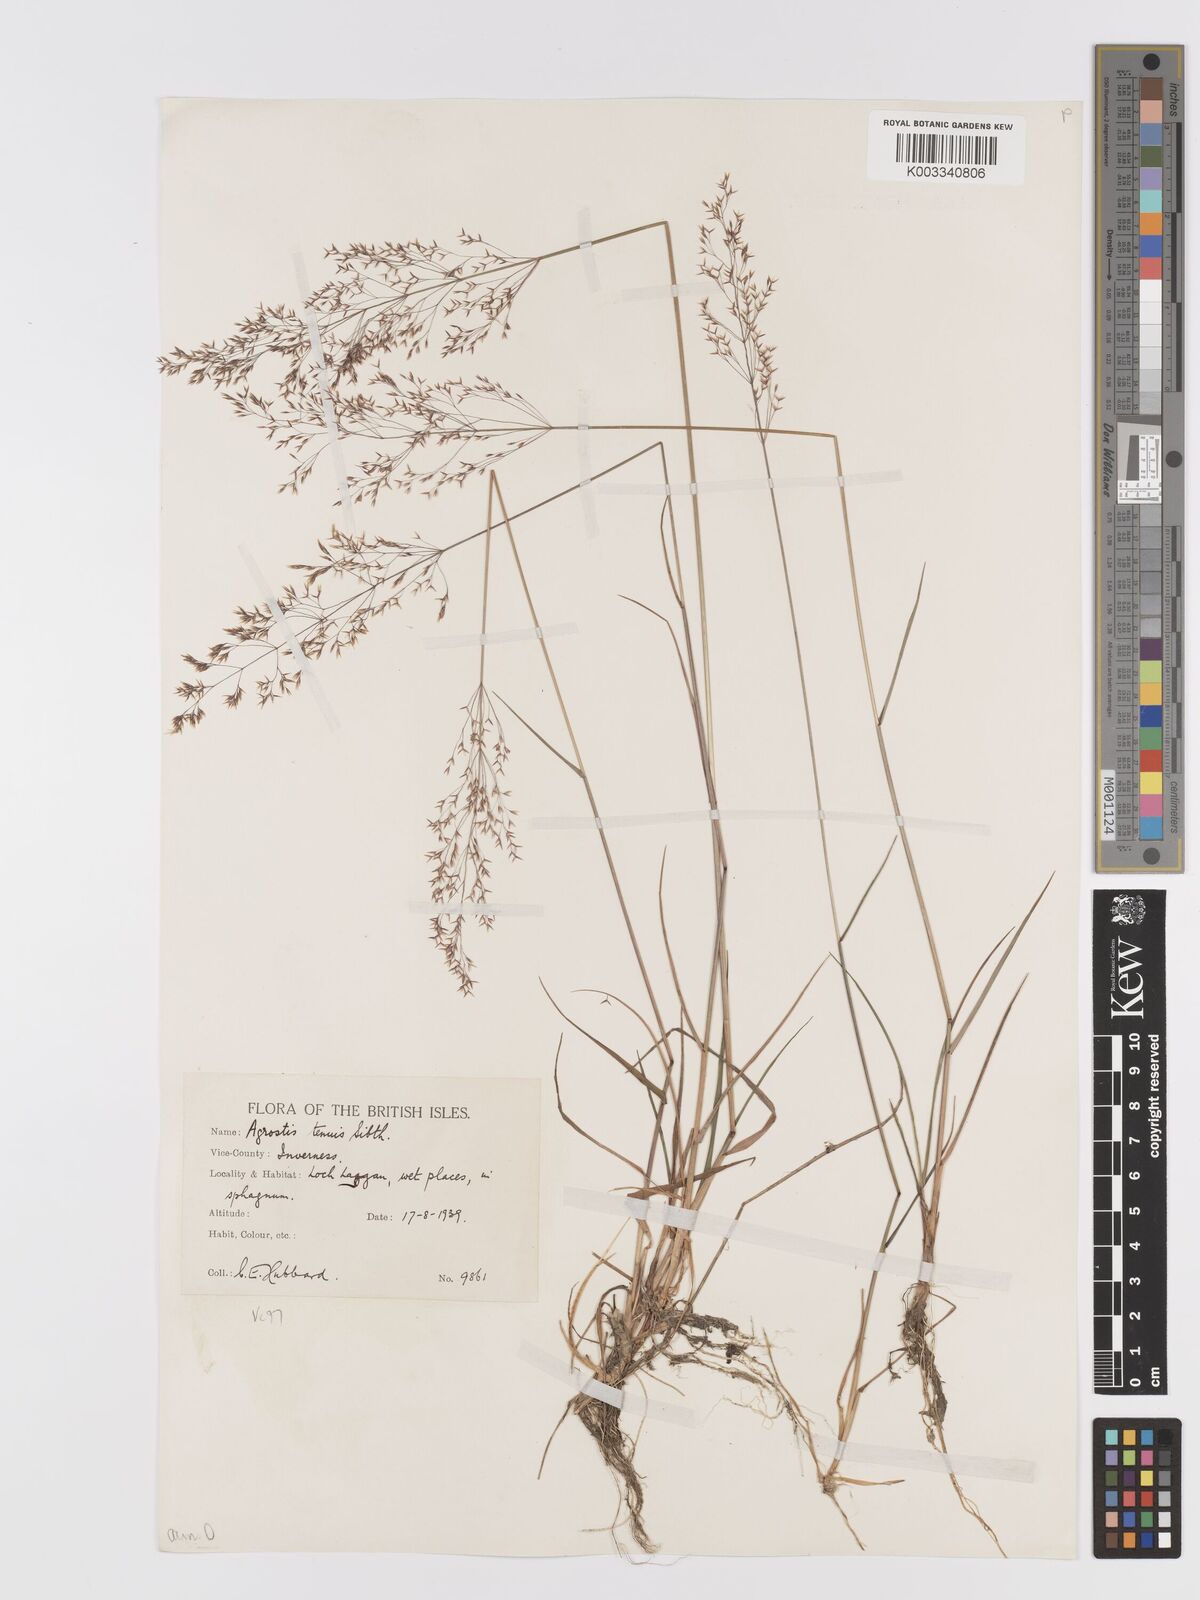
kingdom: Plantae
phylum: Tracheophyta
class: Liliopsida
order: Poales
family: Poaceae
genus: Agrostis
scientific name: Agrostis capillaris
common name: Colonial bentgrass
